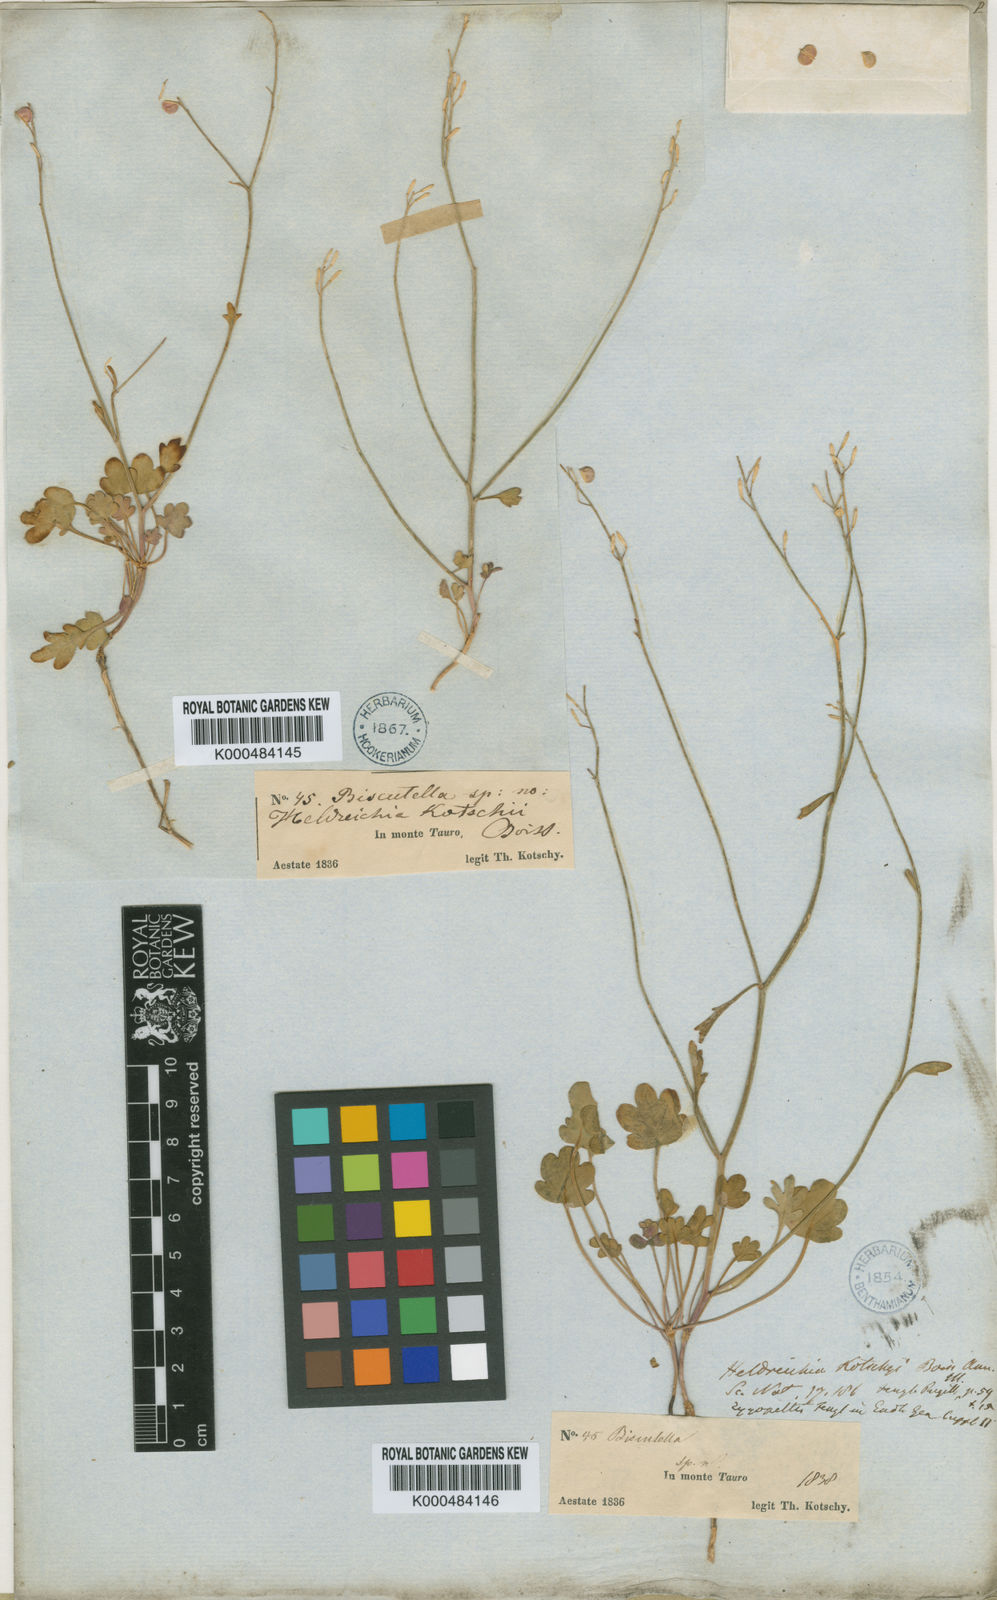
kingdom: Plantae
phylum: Tracheophyta
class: Magnoliopsida
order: Brassicales
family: Brassicaceae
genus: Heldreichia
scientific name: Heldreichia
